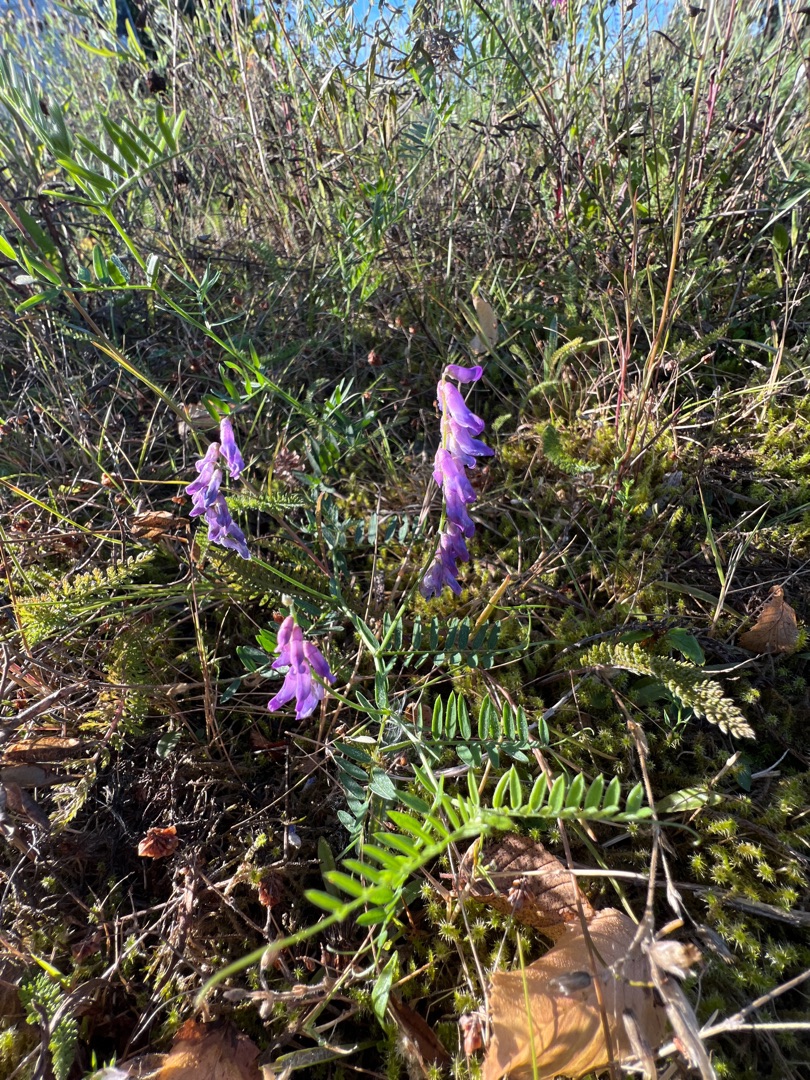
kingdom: Plantae
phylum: Tracheophyta
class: Magnoliopsida
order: Fabales
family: Fabaceae
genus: Vicia
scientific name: Vicia cracca
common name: Muse-vikke
